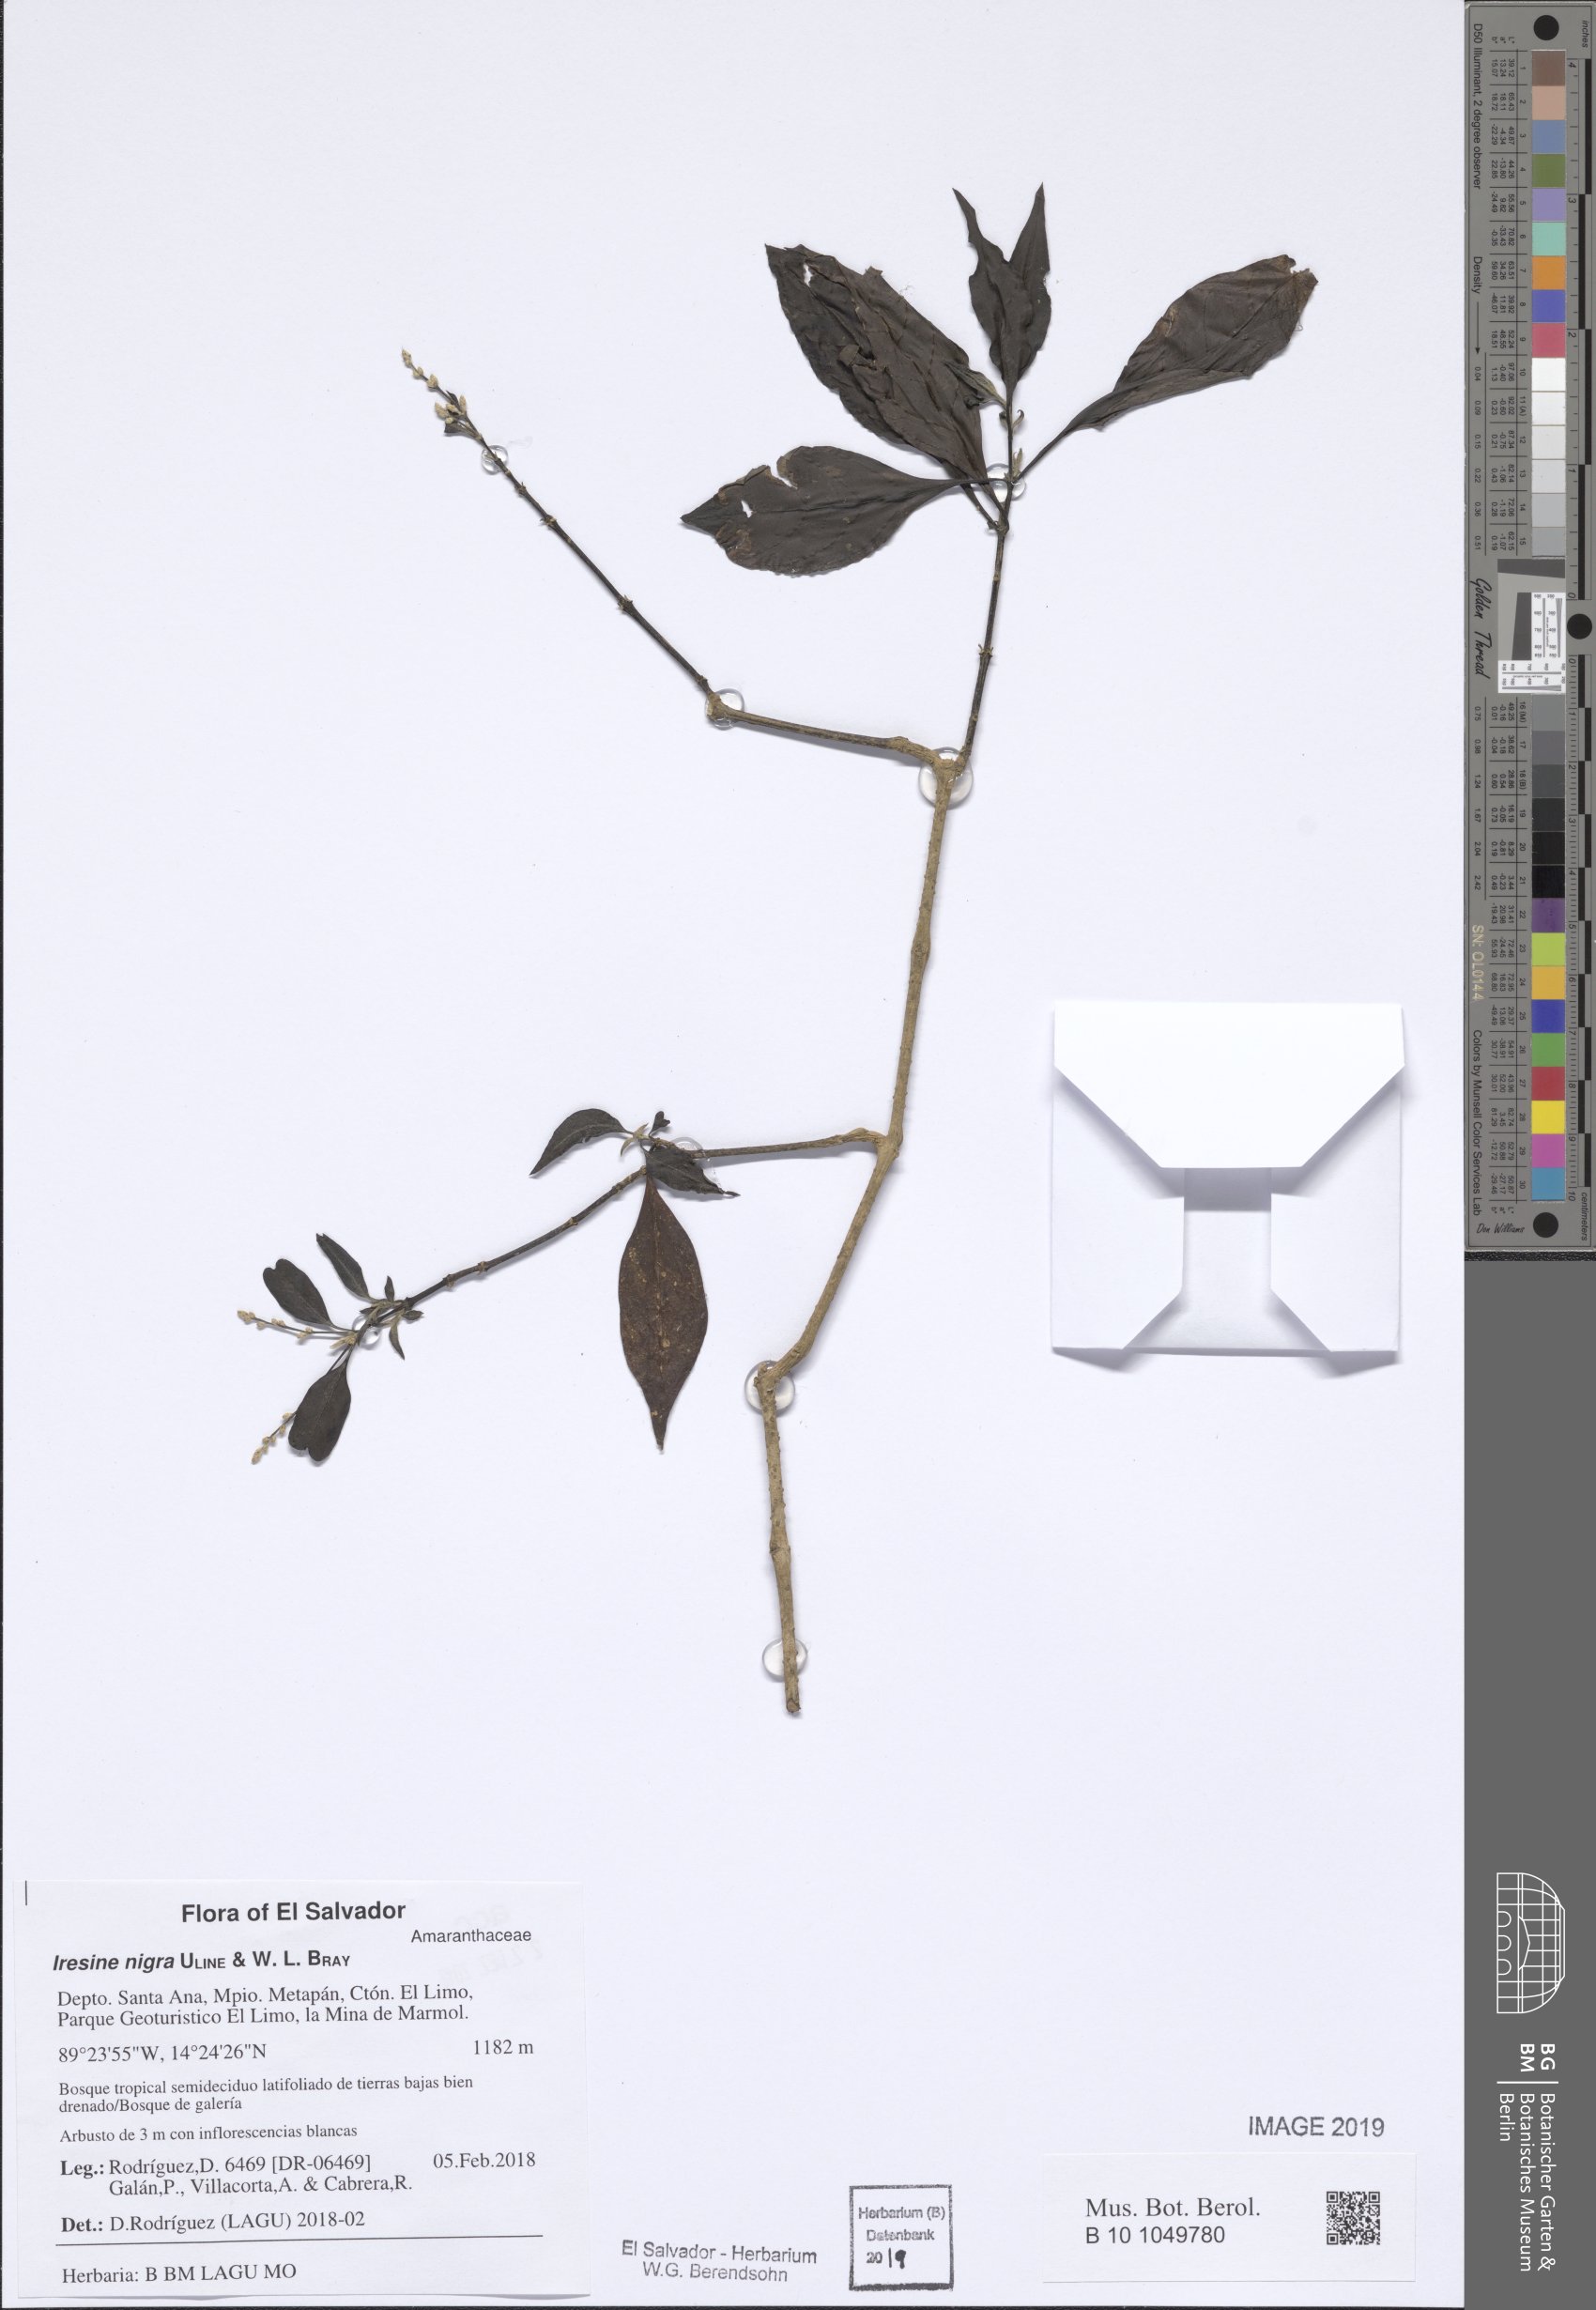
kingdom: Plantae
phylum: Tracheophyta
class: Magnoliopsida
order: Caryophyllales
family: Amaranthaceae
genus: Iresine
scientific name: Iresine nigra
